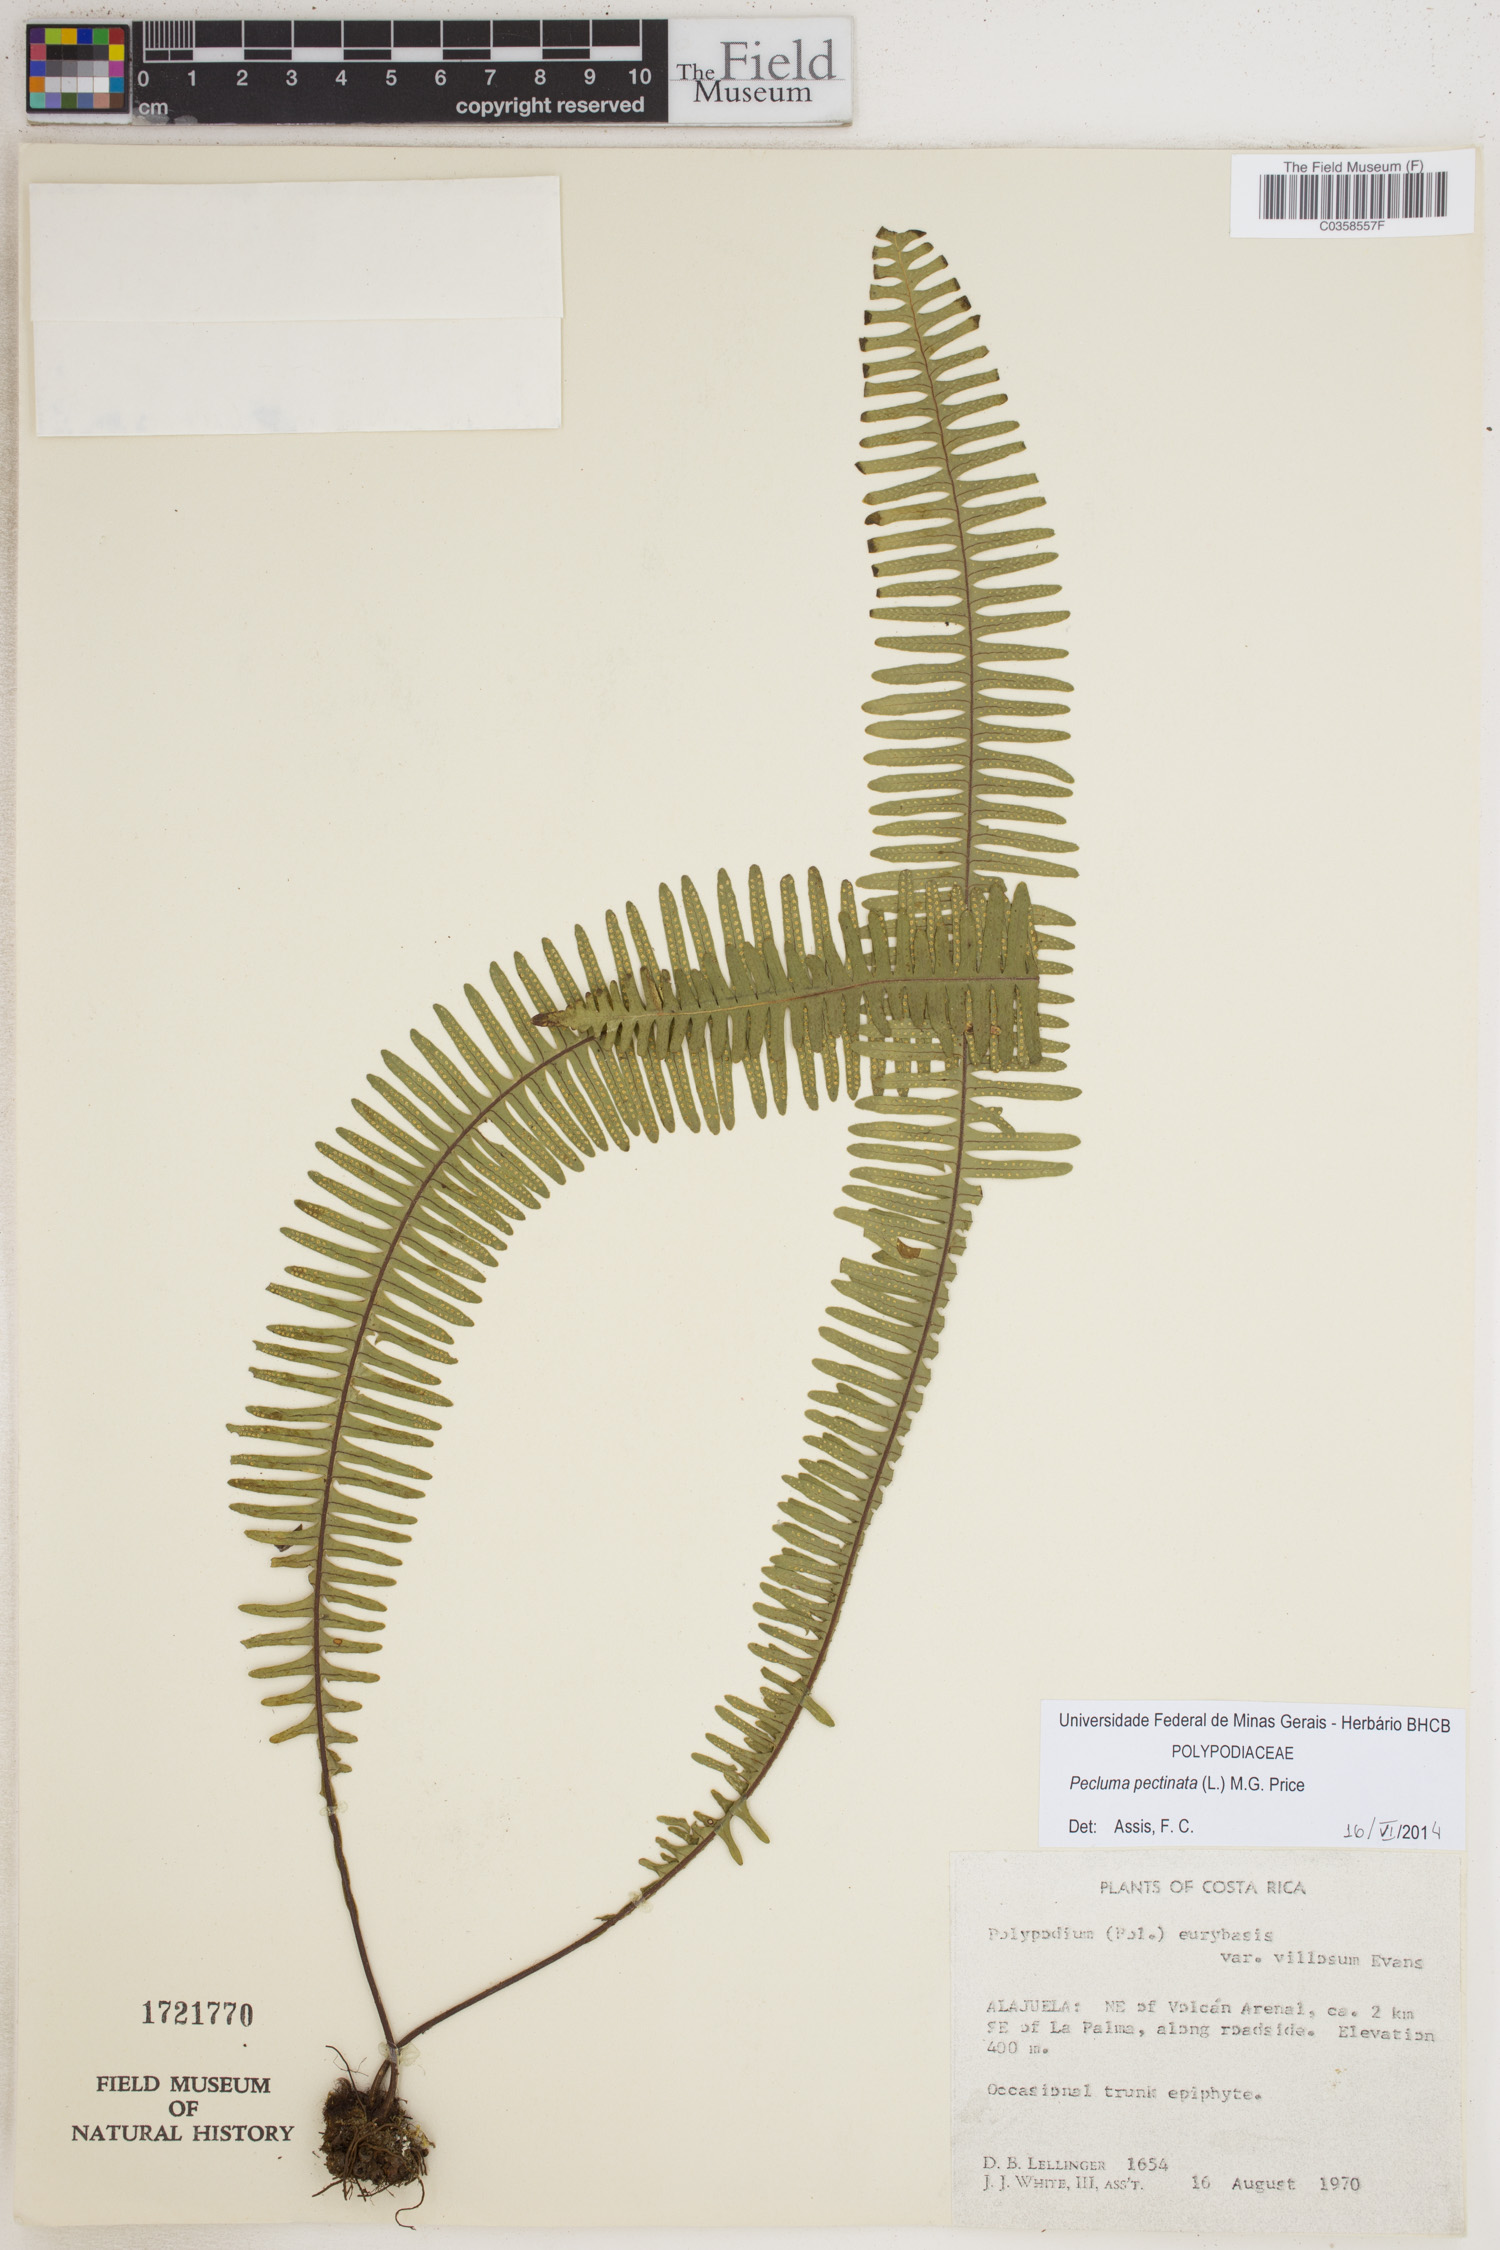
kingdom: Plantae
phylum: Tracheophyta
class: Polypodiopsida
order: Polypodiales
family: Polypodiaceae
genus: Pecluma
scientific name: Pecluma pectinata
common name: Msasa fern
